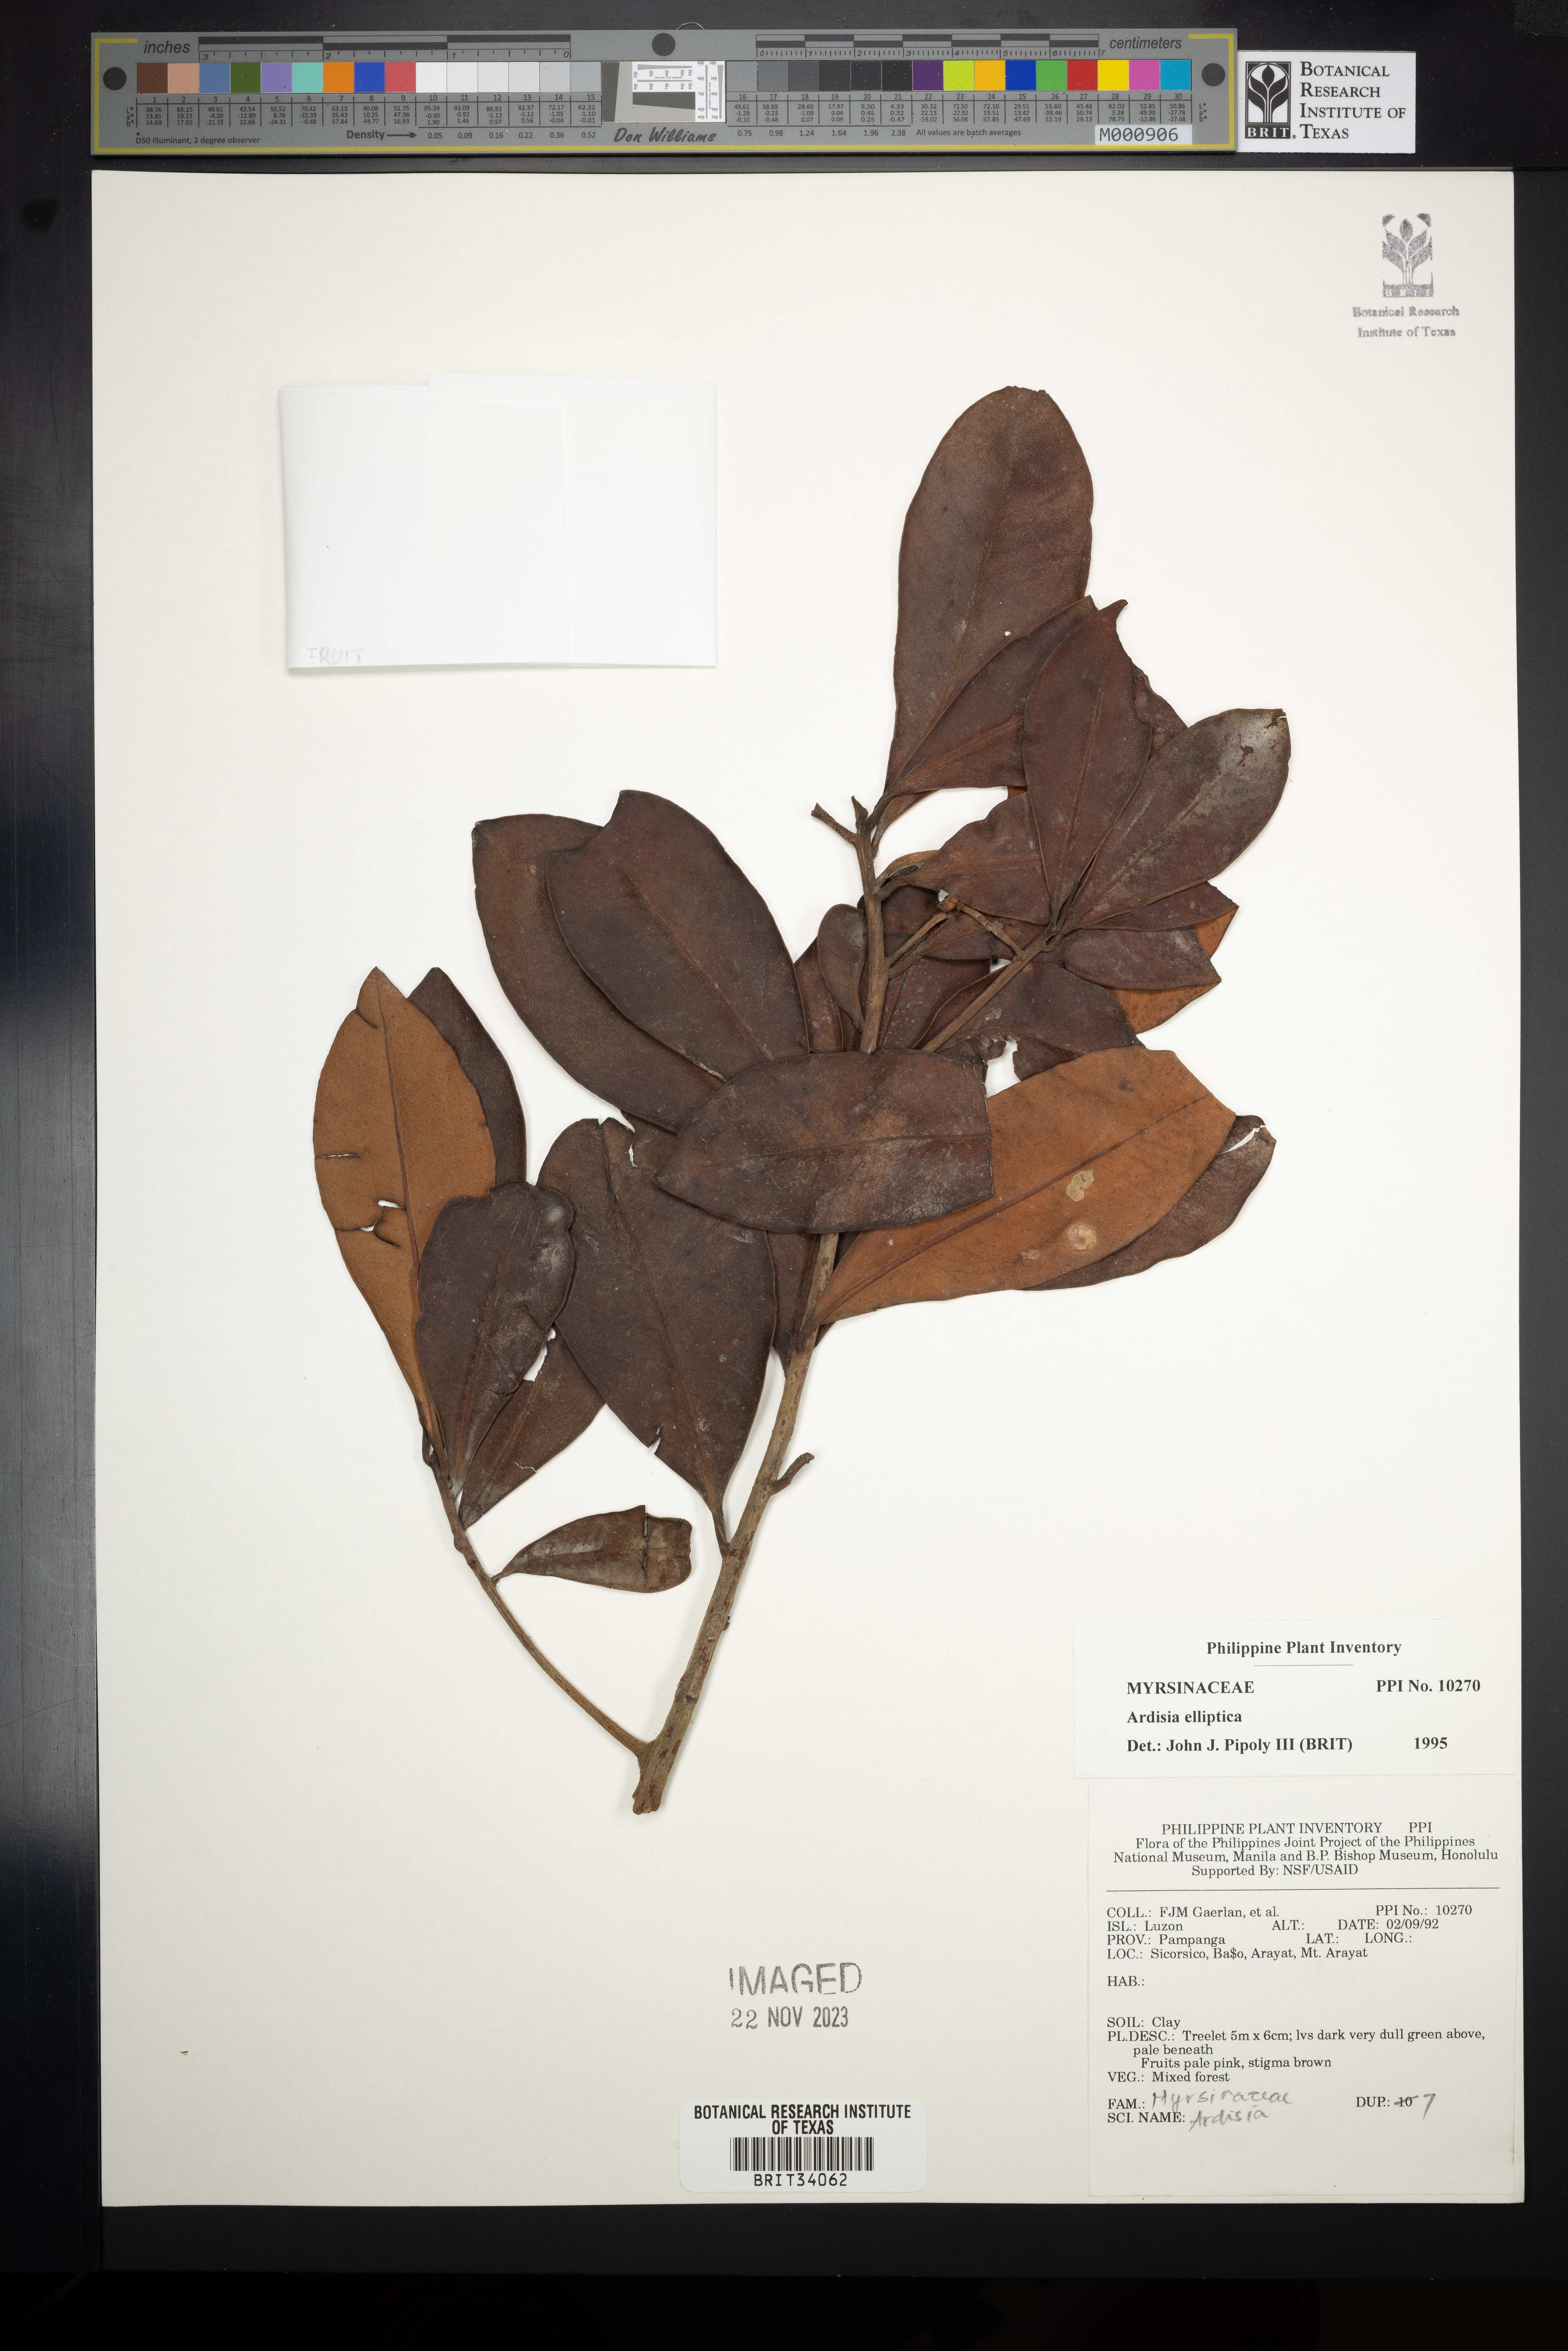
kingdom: Plantae
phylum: Tracheophyta
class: Magnoliopsida
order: Ericales
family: Primulaceae
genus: Ardisia
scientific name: Ardisia elliptica
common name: Shoebutton
